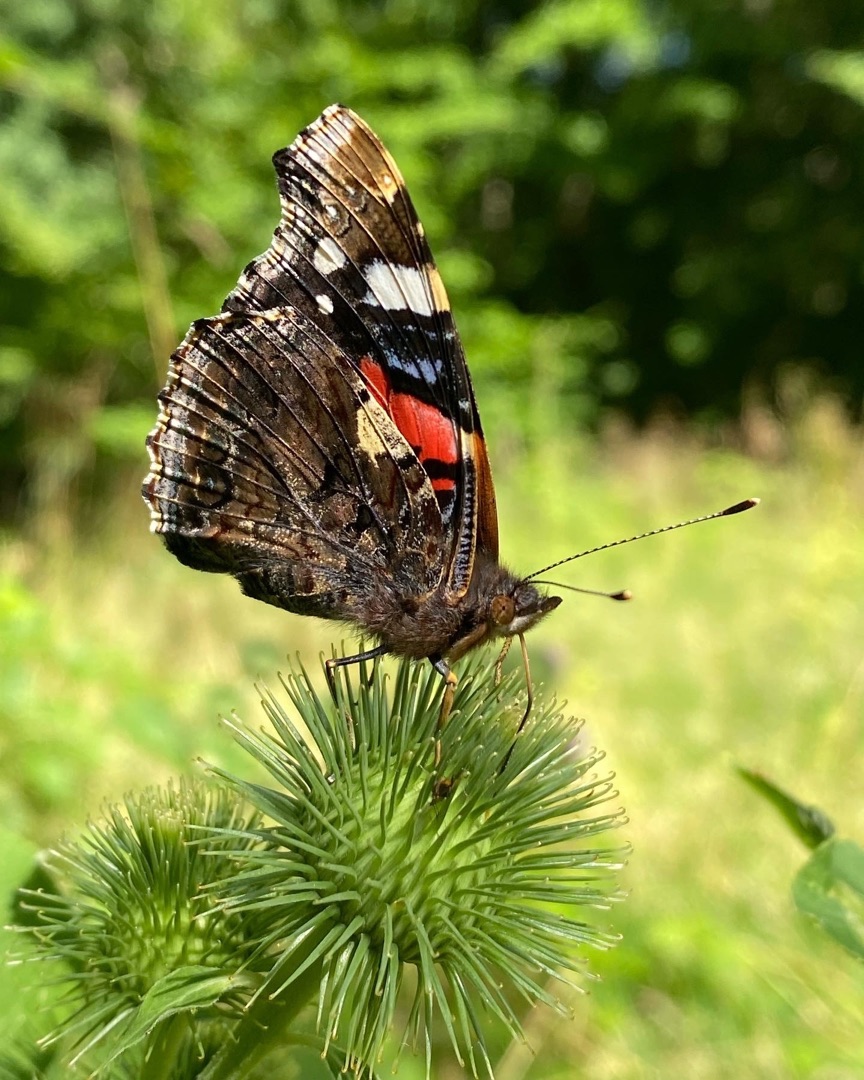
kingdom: Animalia
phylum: Arthropoda
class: Insecta
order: Lepidoptera
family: Nymphalidae
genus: Vanessa
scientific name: Vanessa atalanta
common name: Admiral
